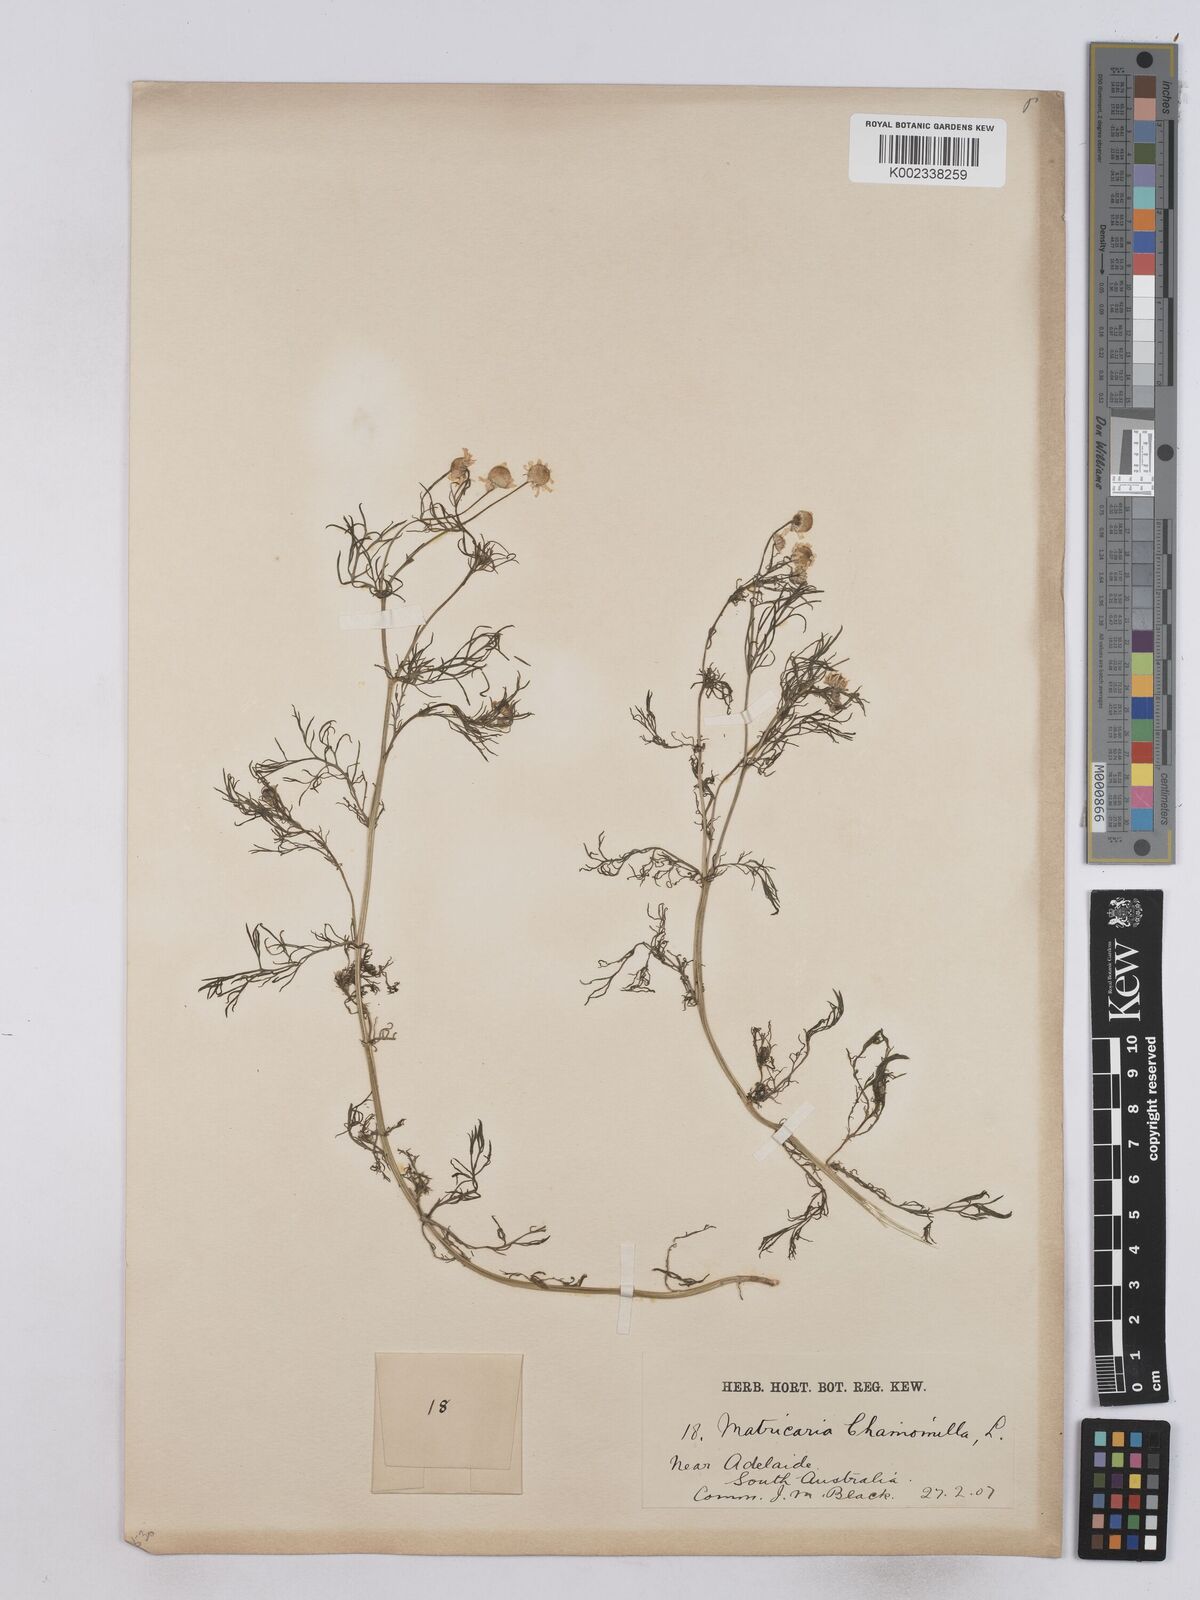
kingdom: Plantae
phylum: Tracheophyta
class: Magnoliopsida
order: Asterales
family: Asteraceae
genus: Matricaria
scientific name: Matricaria chamomilla
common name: Scented mayweed
